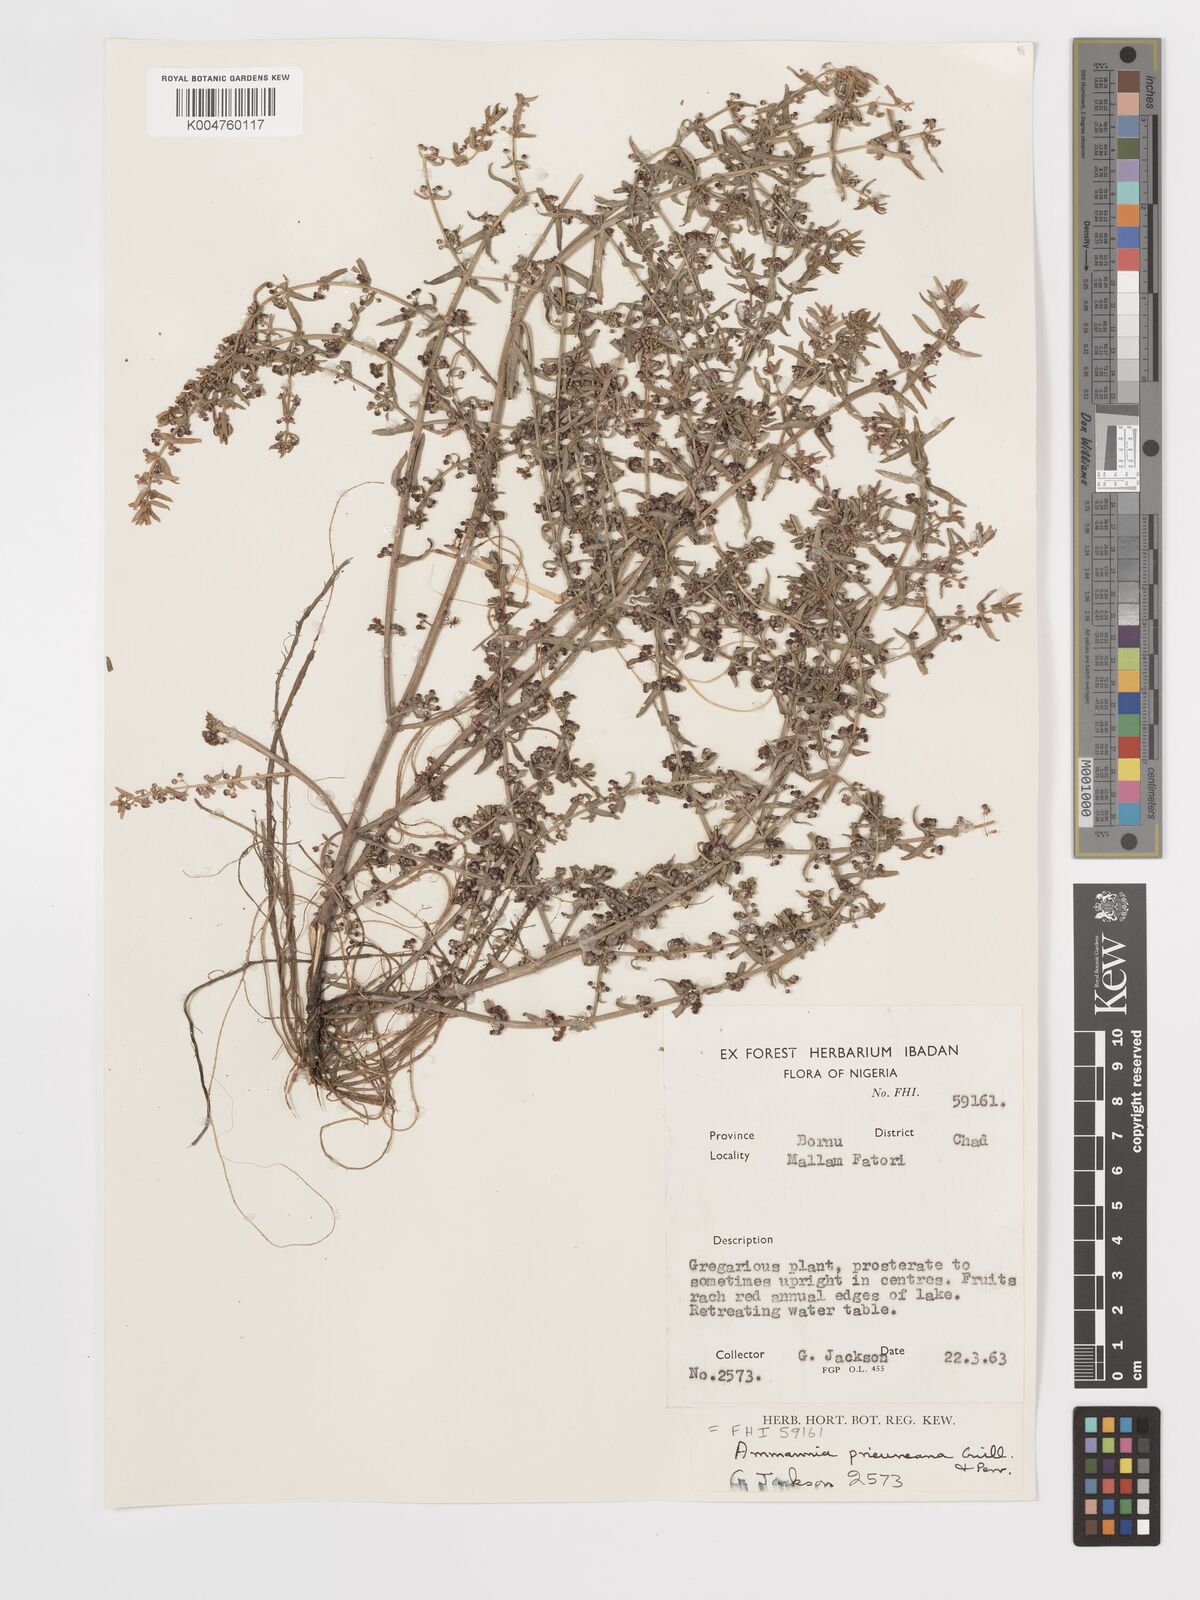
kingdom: Plantae
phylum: Tracheophyta
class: Magnoliopsida
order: Myrtales
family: Lythraceae
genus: Ammannia
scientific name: Ammannia prieuriana
